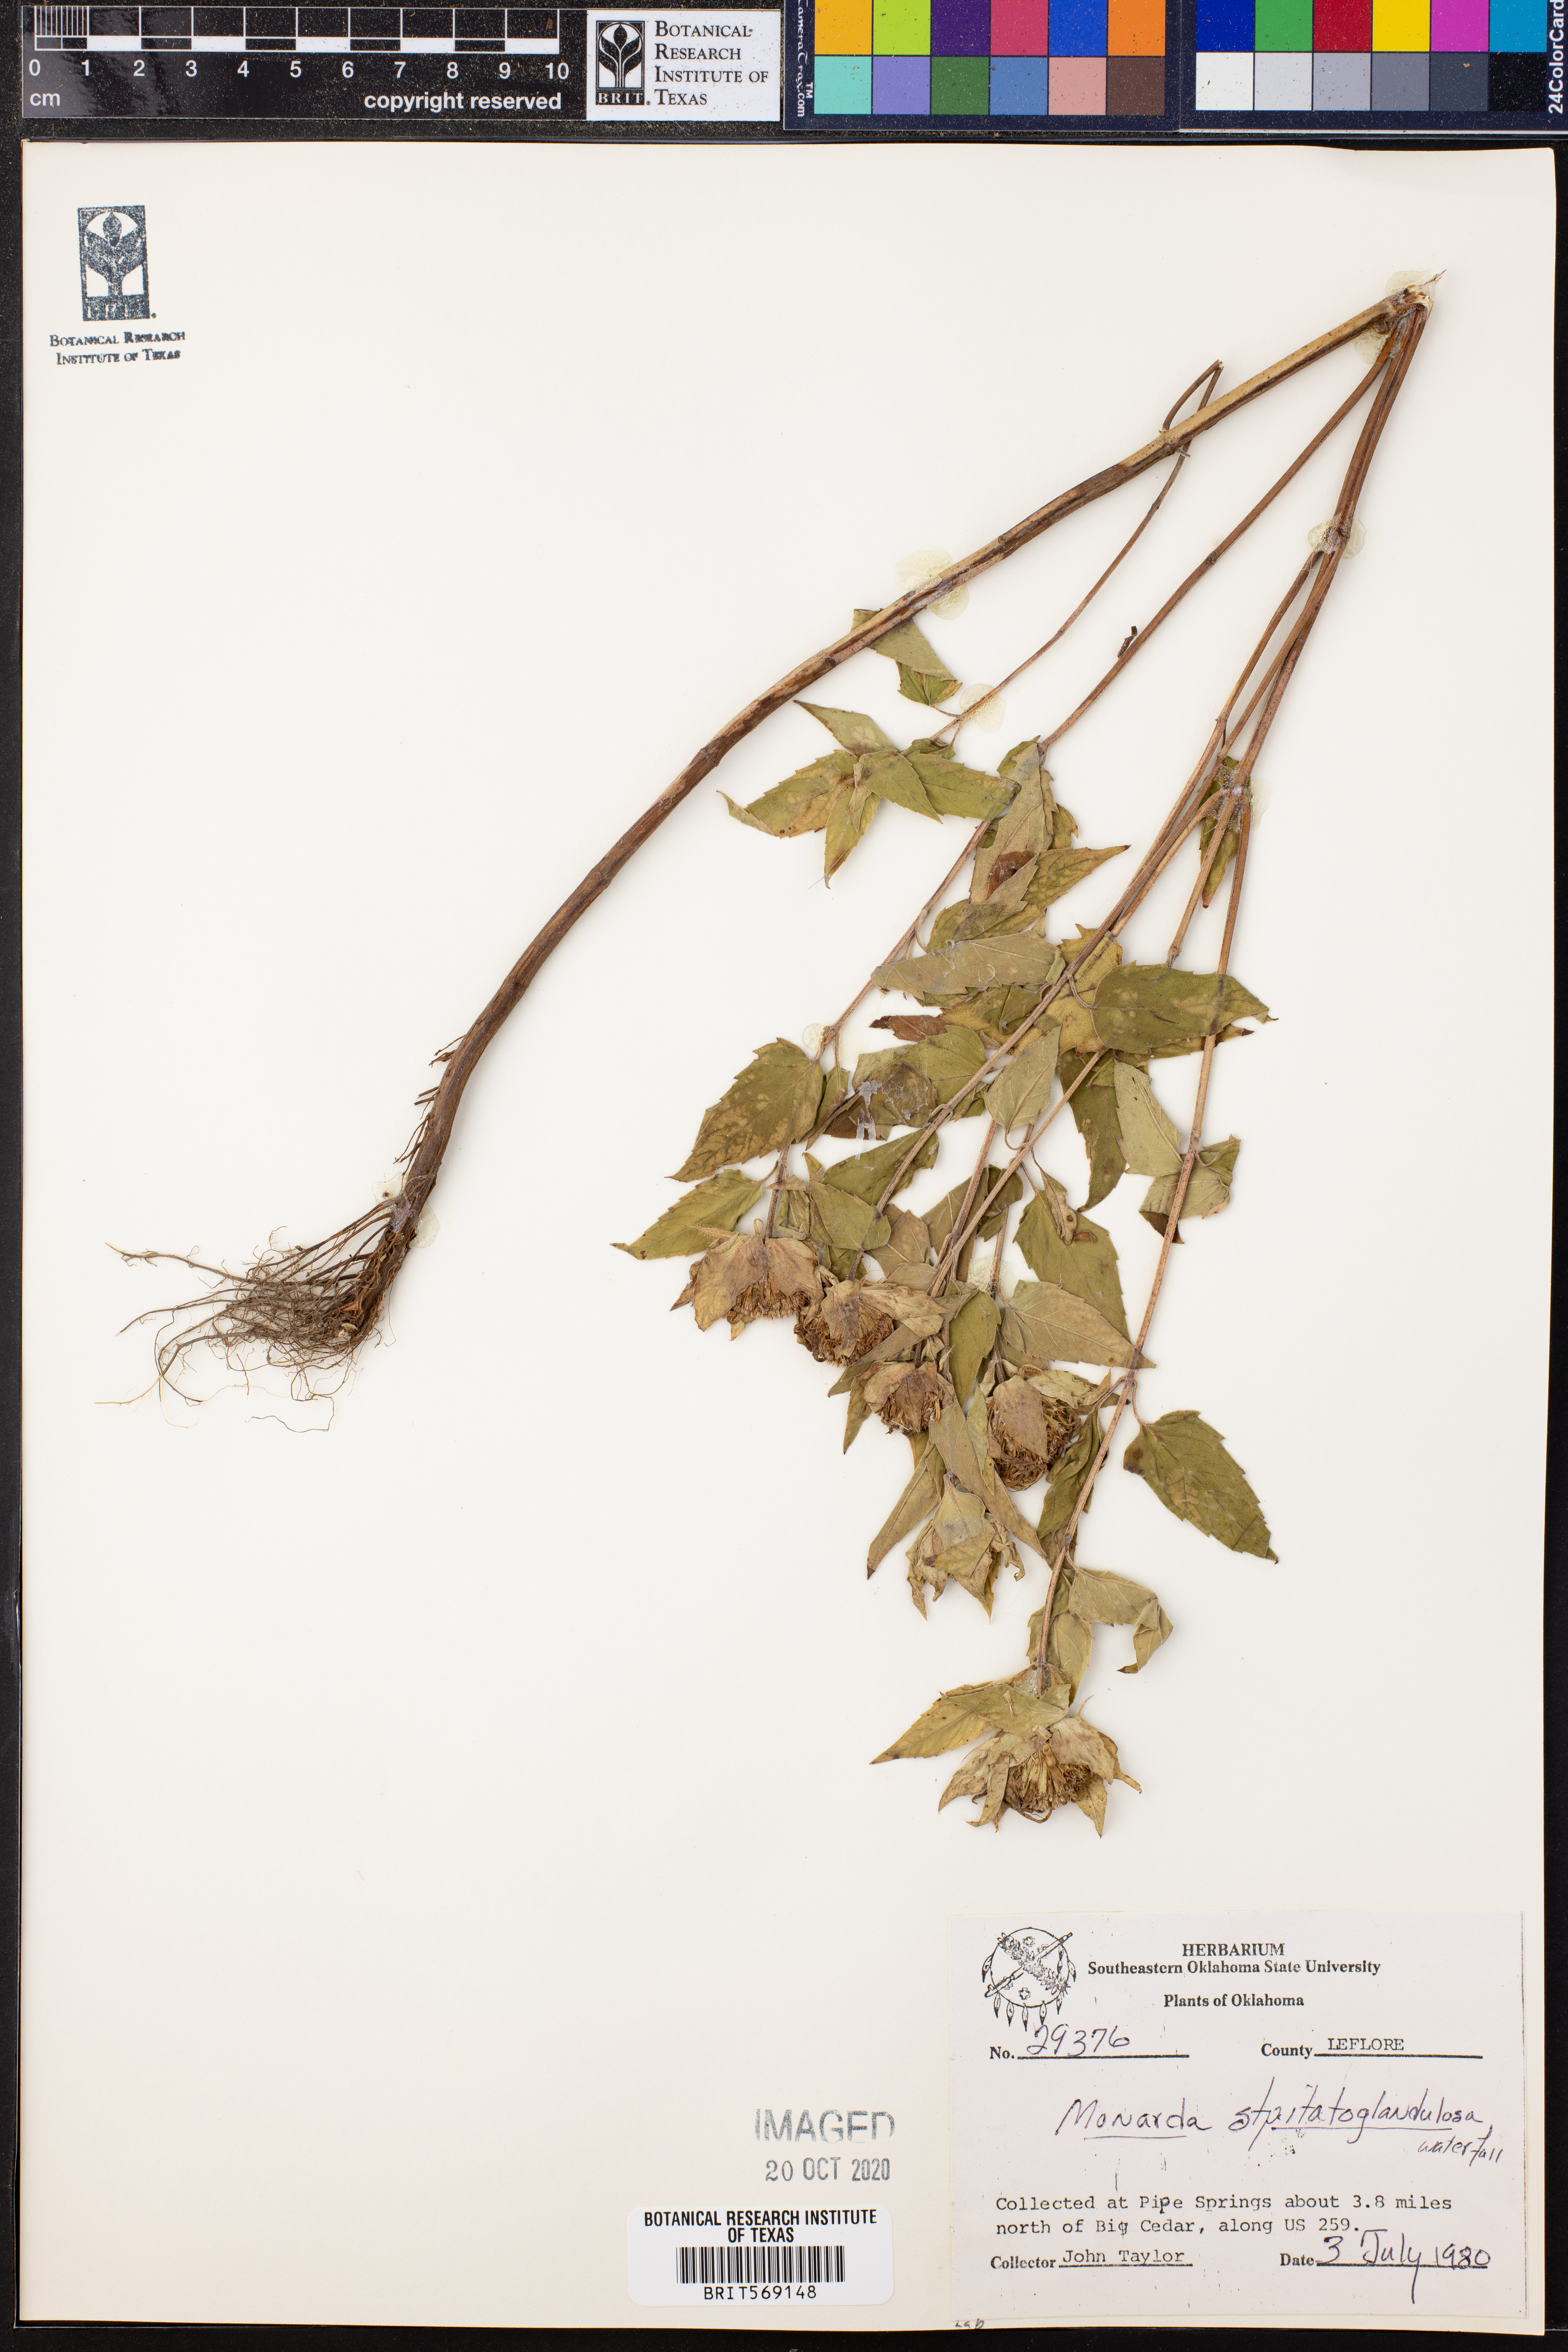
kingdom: Plantae
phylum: Tracheophyta
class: Magnoliopsida
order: Lamiales
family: Lamiaceae
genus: Monarda
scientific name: Monarda fistulosa
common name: Purple beebalm
